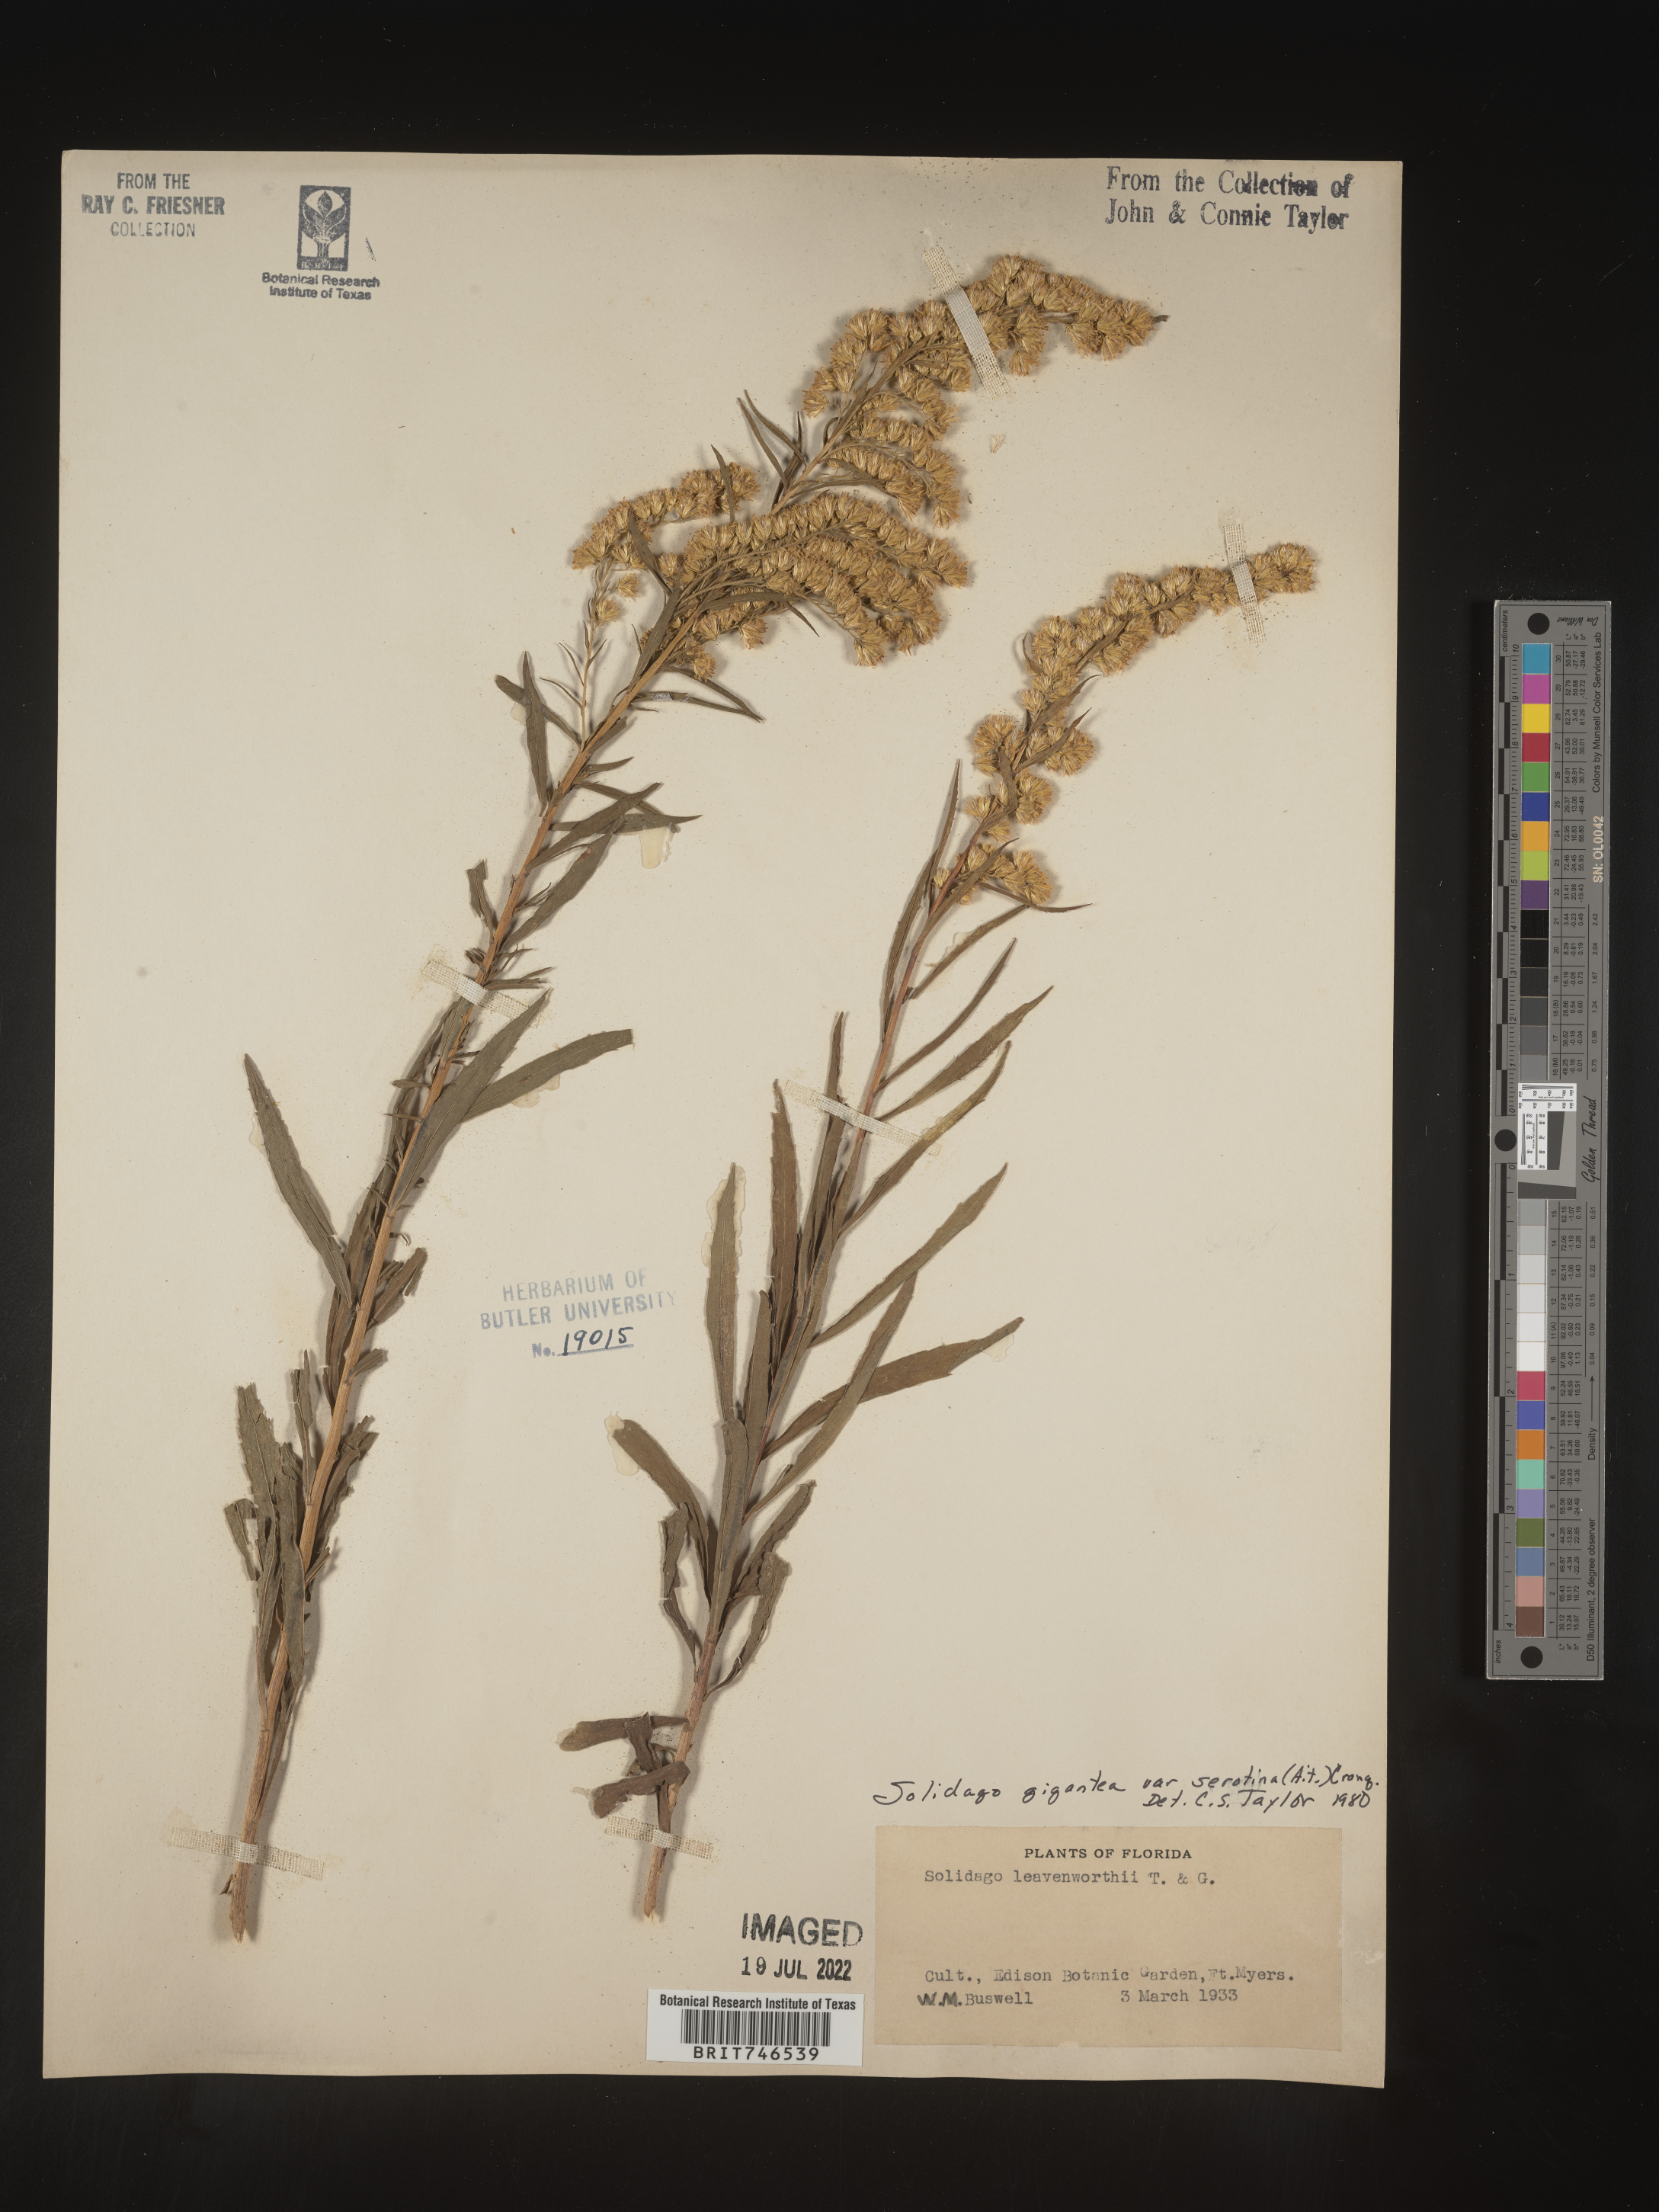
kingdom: Plantae
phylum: Tracheophyta
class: Magnoliopsida
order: Asterales
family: Asteraceae
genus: Solidago
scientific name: Solidago gigantea
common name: Giant goldenrod
